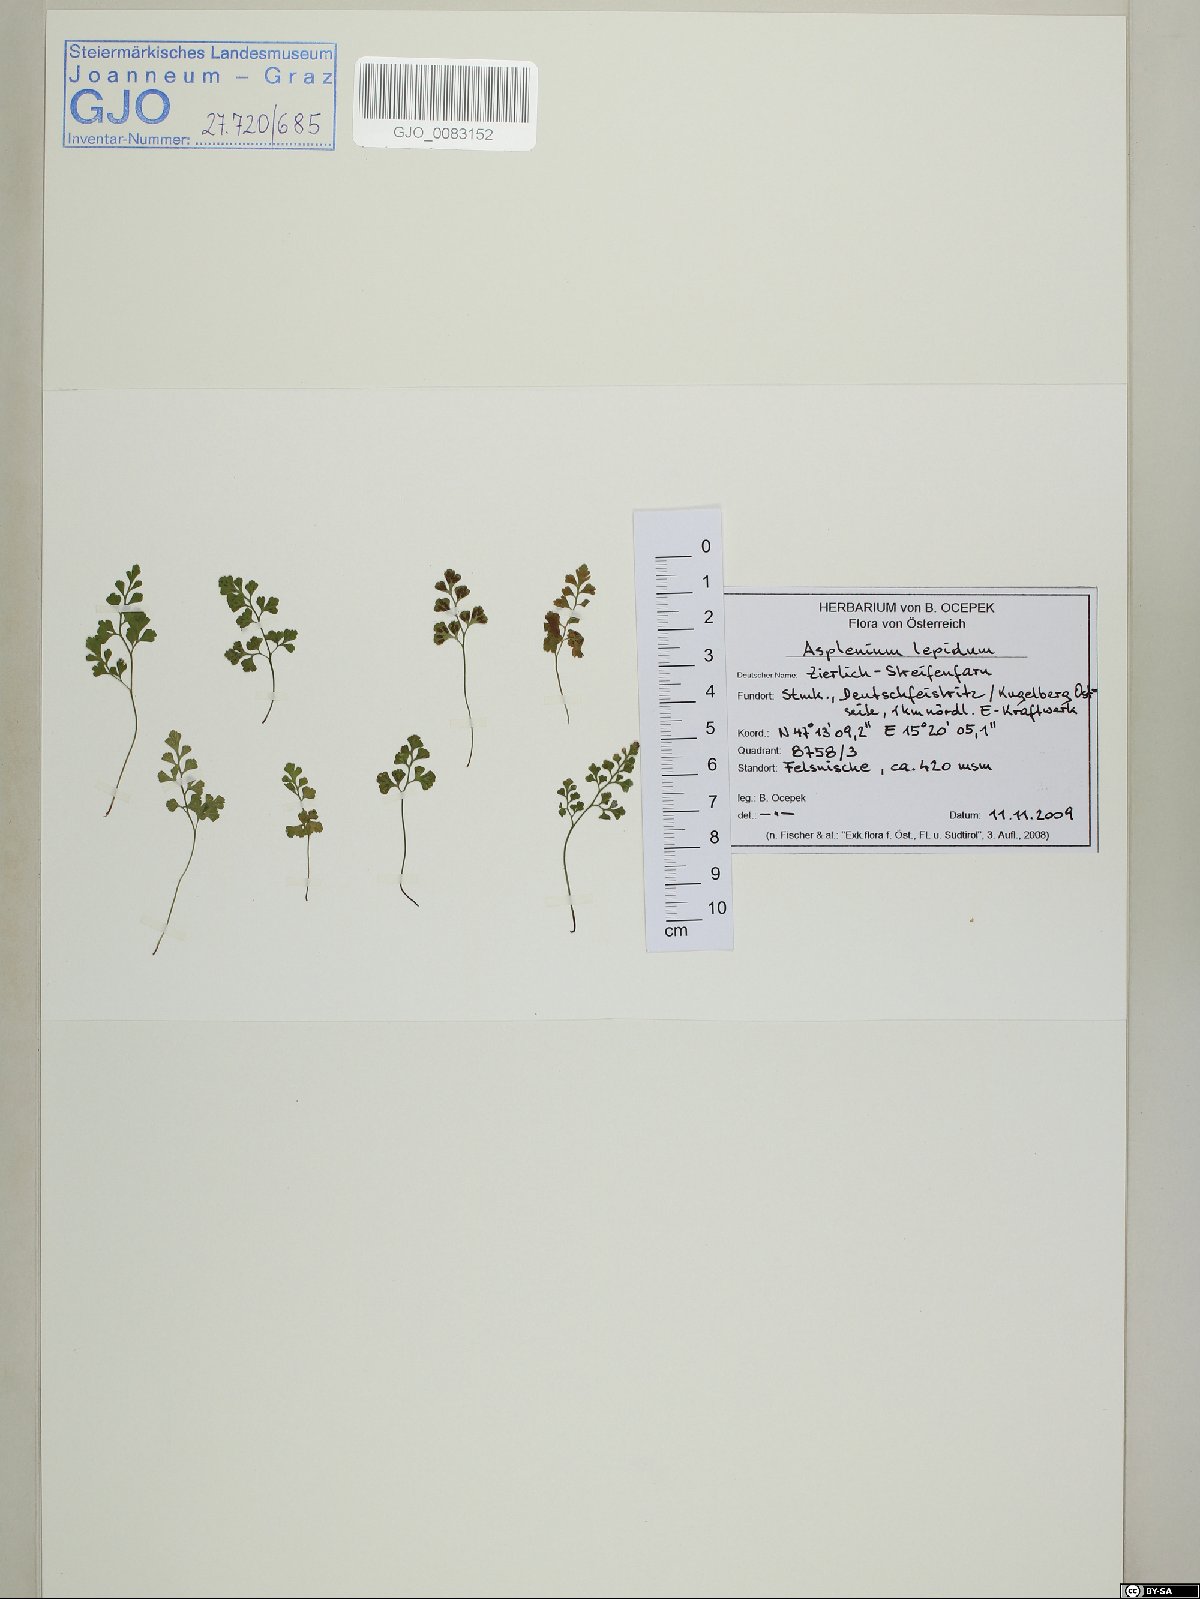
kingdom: Plantae
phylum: Tracheophyta
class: Polypodiopsida
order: Polypodiales
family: Aspleniaceae
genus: Asplenium
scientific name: Asplenium lepidum
